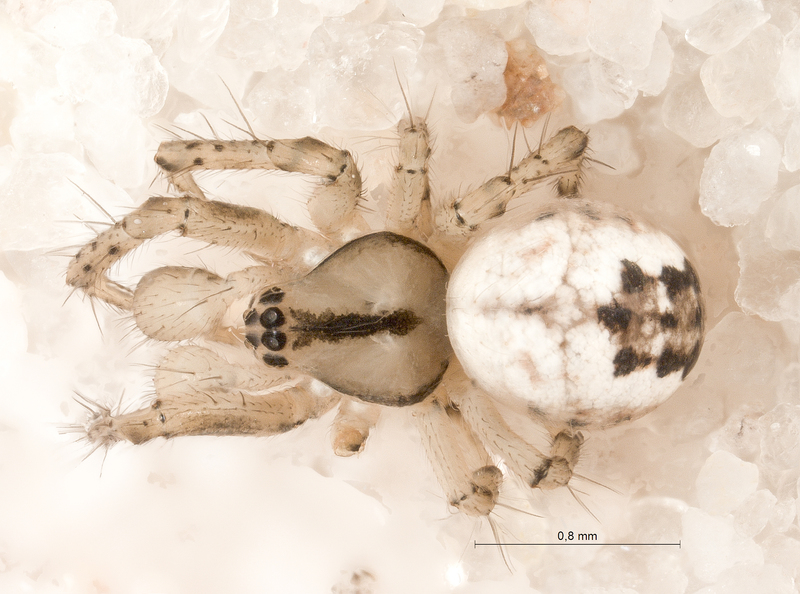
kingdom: Animalia
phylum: Arthropoda
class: Arachnida
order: Araneae
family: Araneidae
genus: Mangora
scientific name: Mangora acalypha
